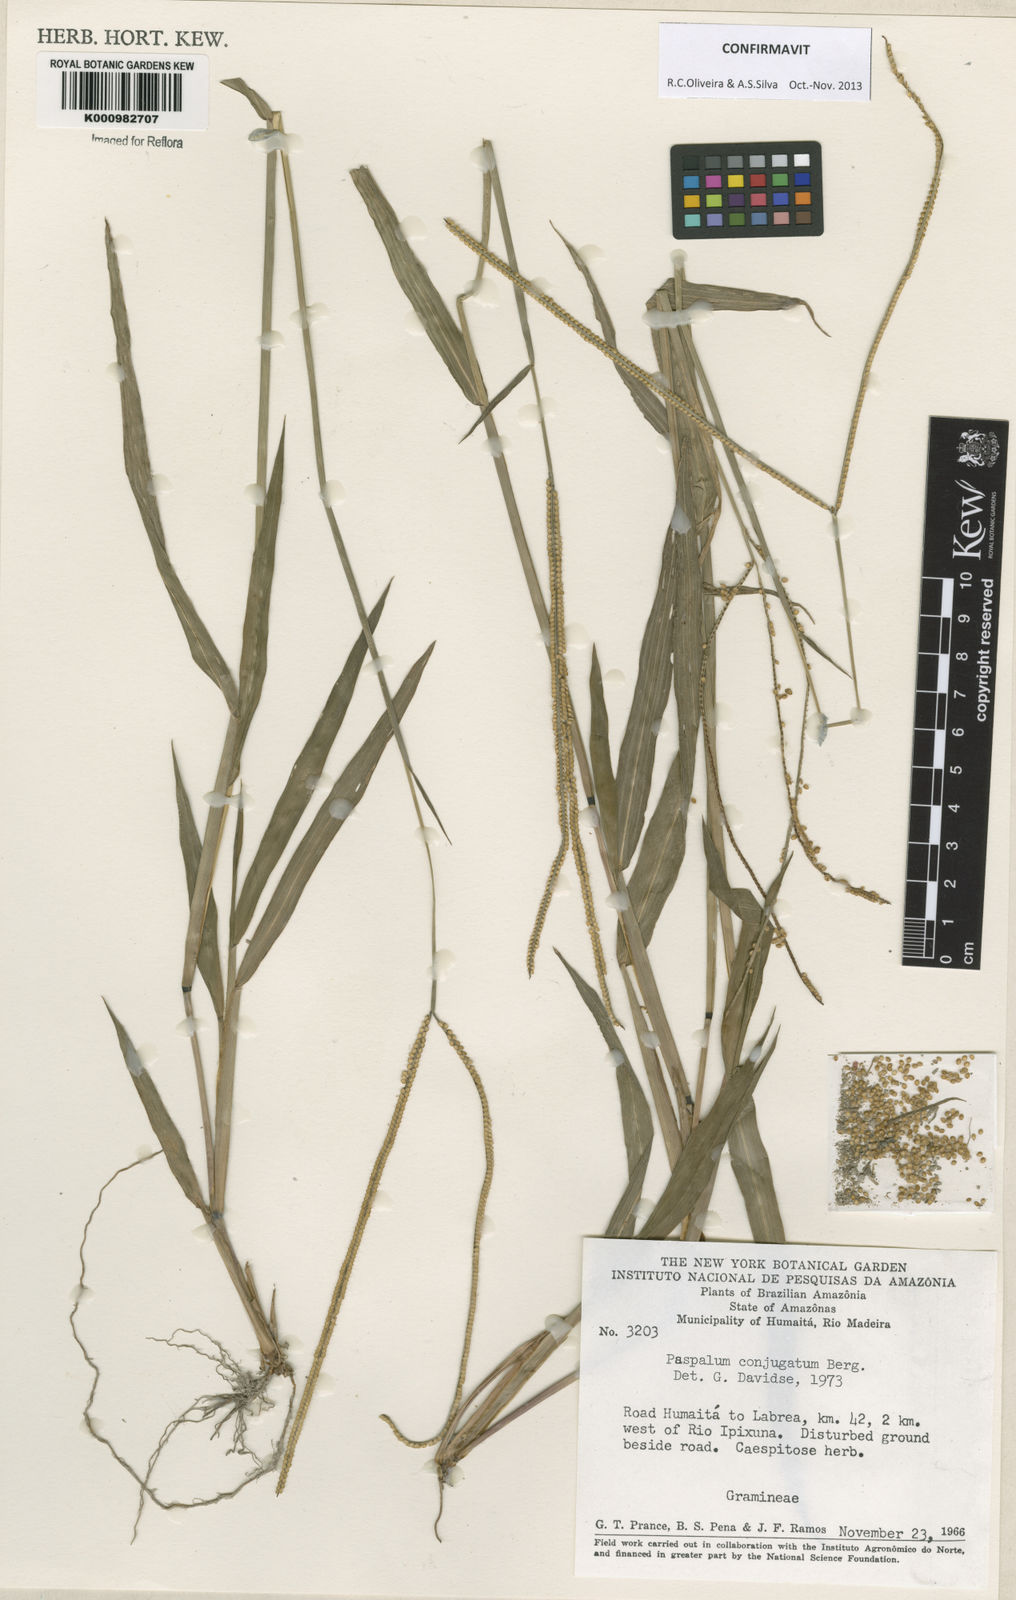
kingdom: Plantae
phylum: Tracheophyta
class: Liliopsida
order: Poales
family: Poaceae
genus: Paspalum
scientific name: Paspalum conjugatum
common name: Hilograss
